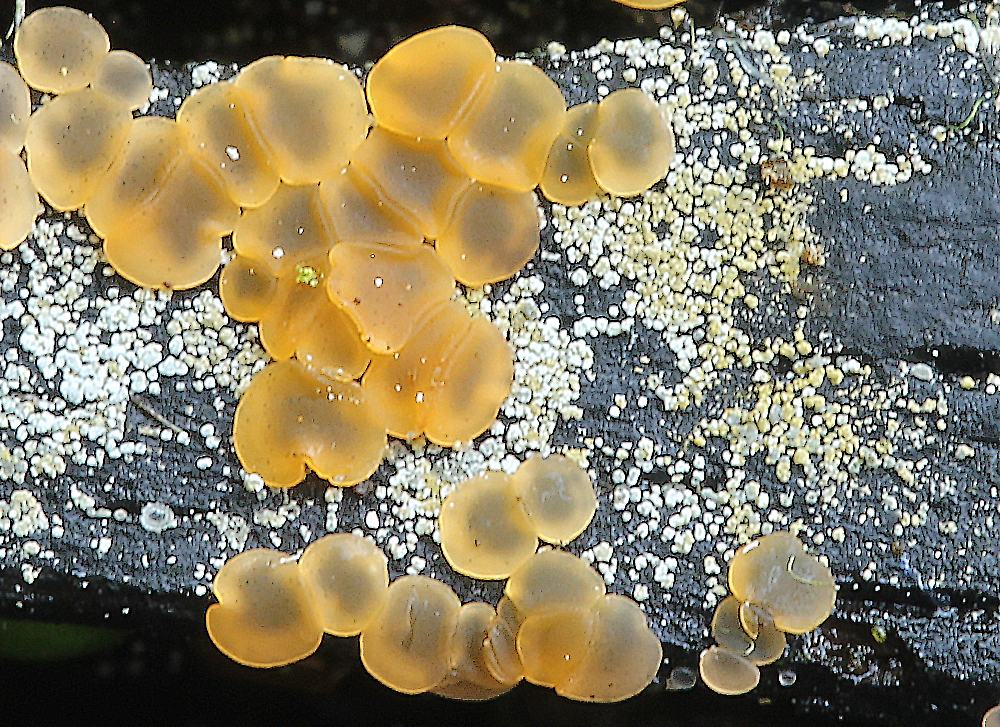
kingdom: Fungi
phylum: Ascomycota
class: Orbiliomycetes
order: Orbiliales
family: Orbiliaceae
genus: Orbilia
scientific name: Orbilia xanthostigma
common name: krumsporet voksskive
